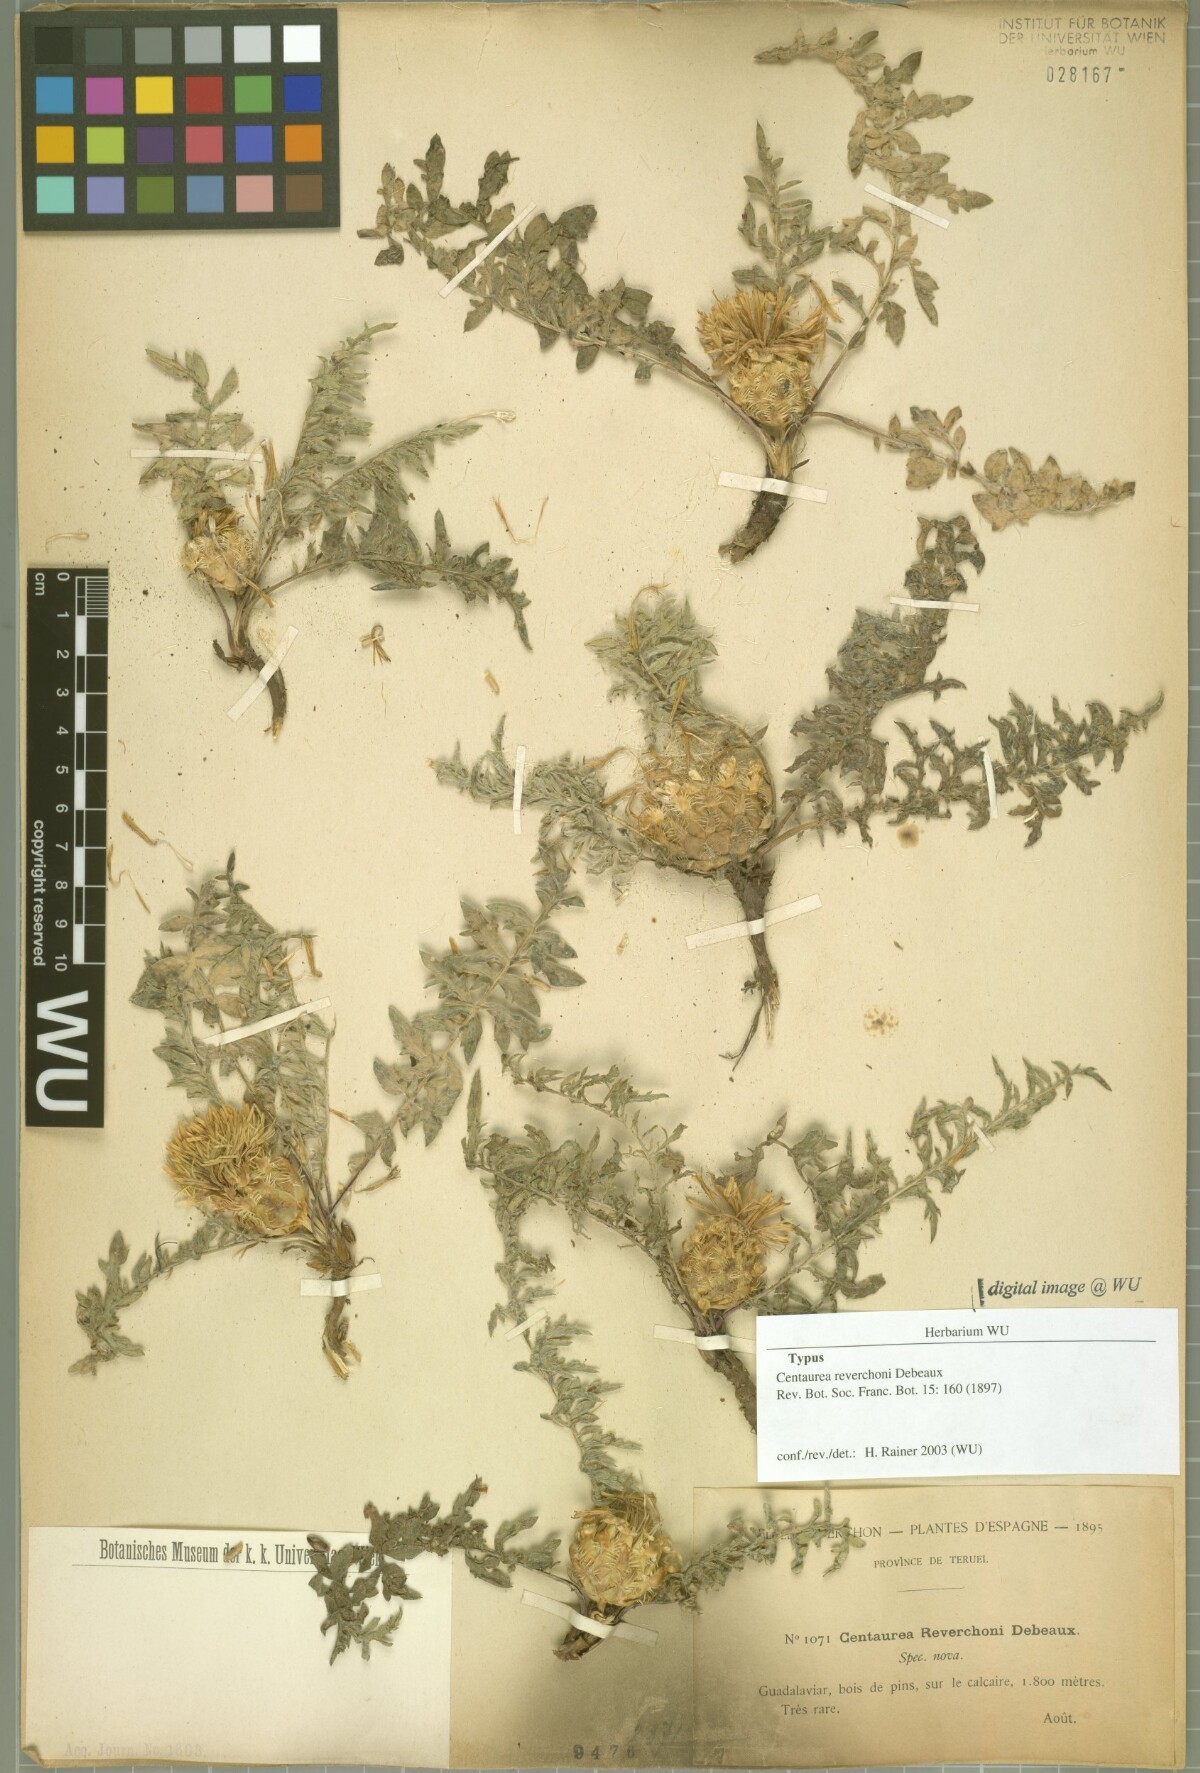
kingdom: Plantae
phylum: Tracheophyta
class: Magnoliopsida
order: Asterales
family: Asteraceae
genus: Centaurea
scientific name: Centaurea reverchonii
